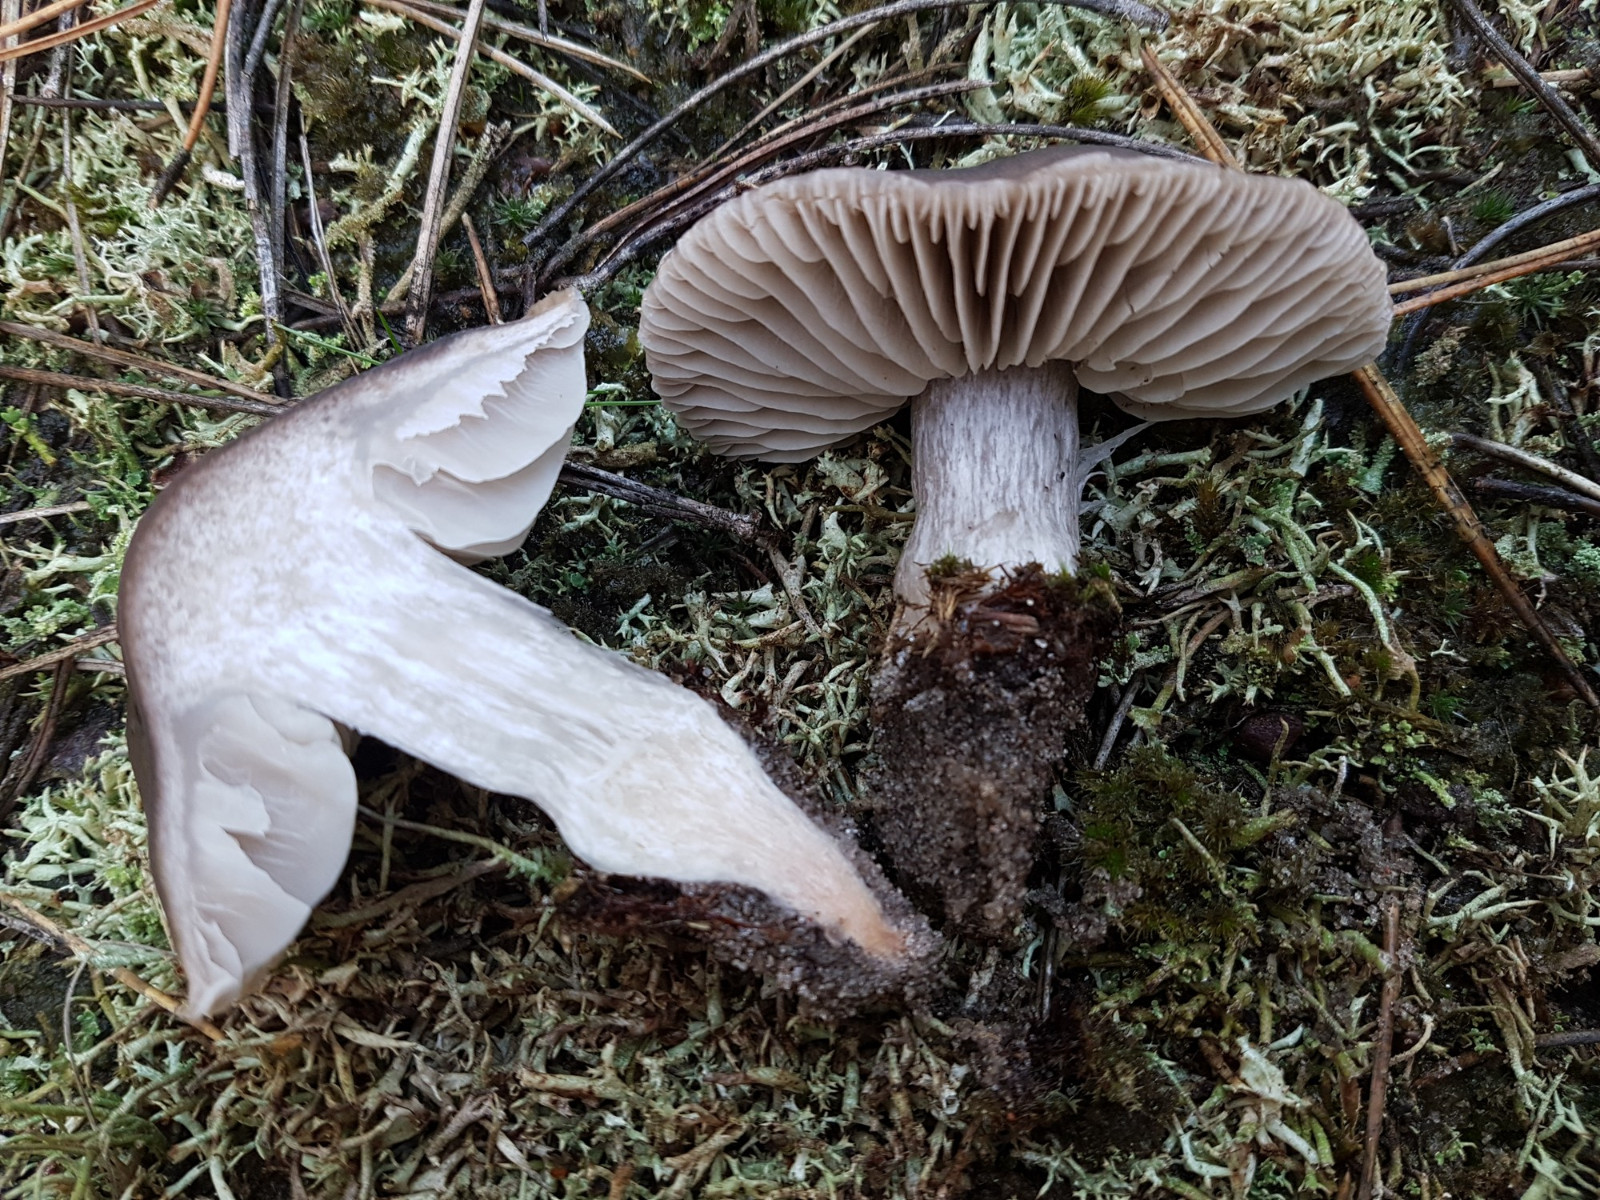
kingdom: Fungi
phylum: Basidiomycota
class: Agaricomycetes
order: Agaricales
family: Tricholomataceae
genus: Tricholoma
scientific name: Tricholoma sudum
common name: tør ridderhat
